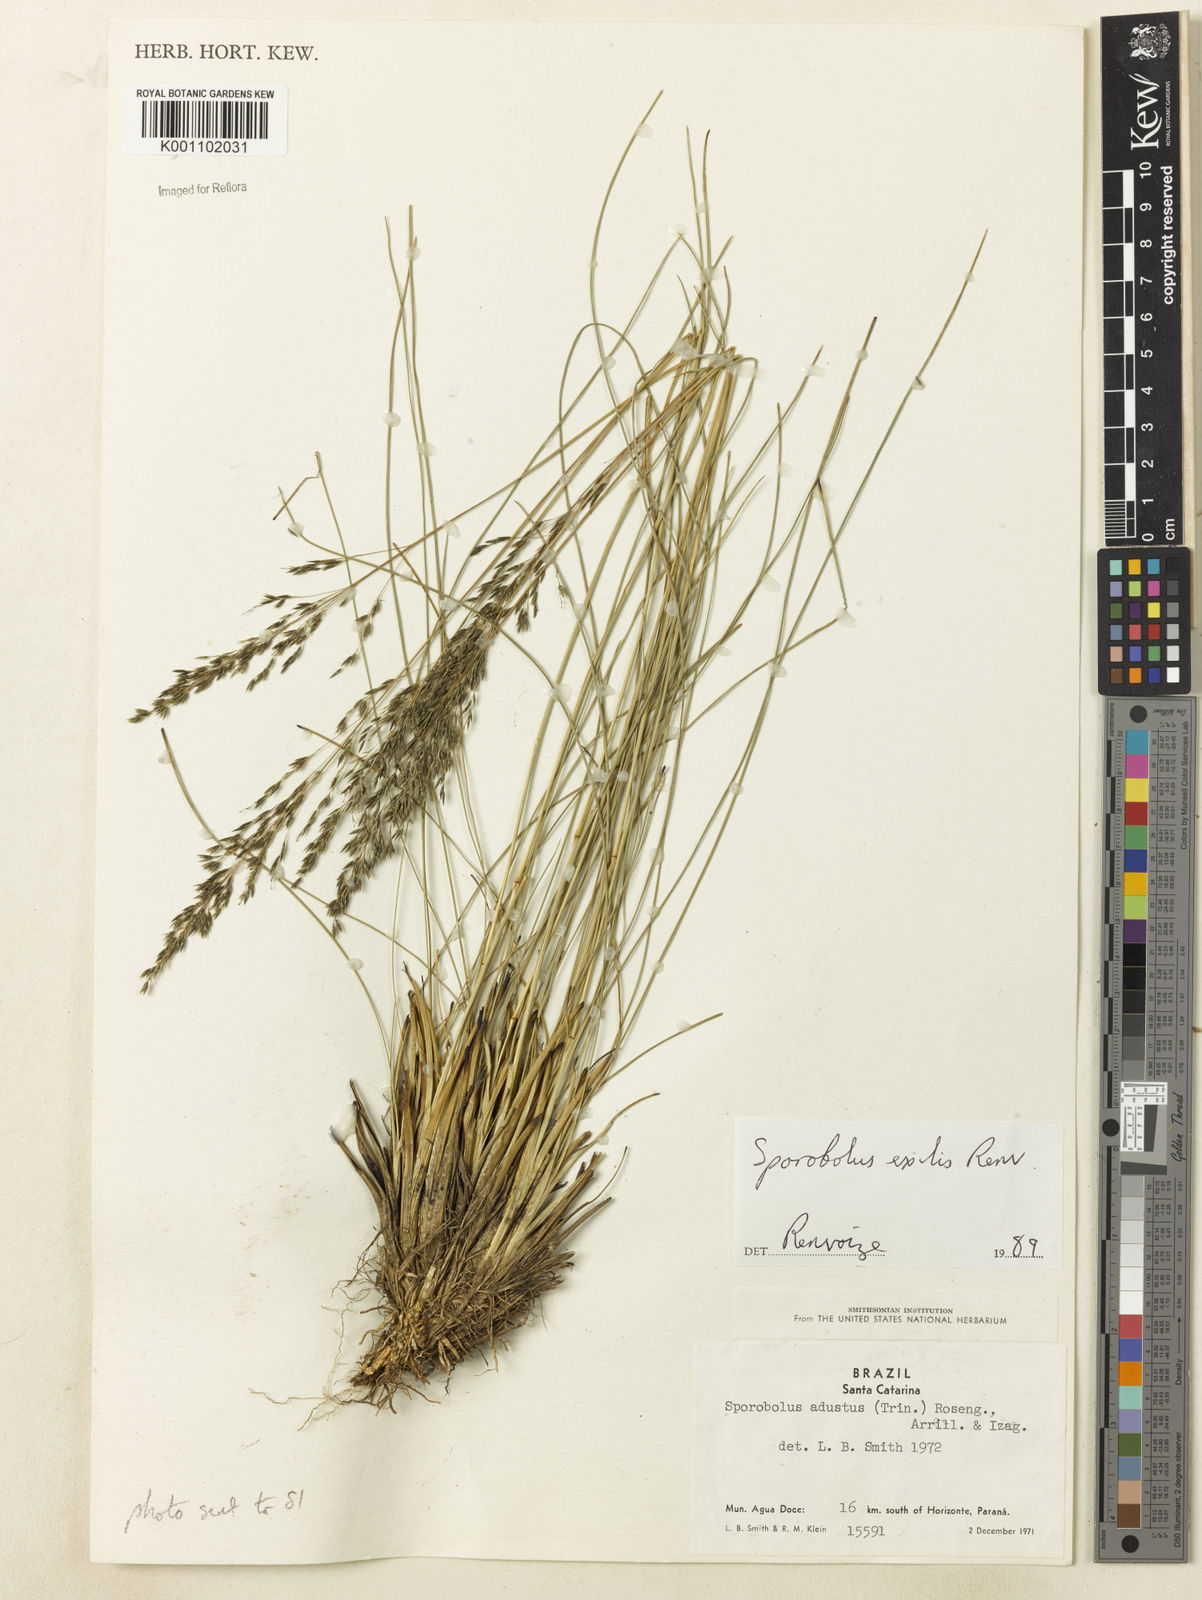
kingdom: Plantae
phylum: Tracheophyta
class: Liliopsida
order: Poales
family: Poaceae
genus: Sporobolus
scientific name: Sporobolus linearifolius
